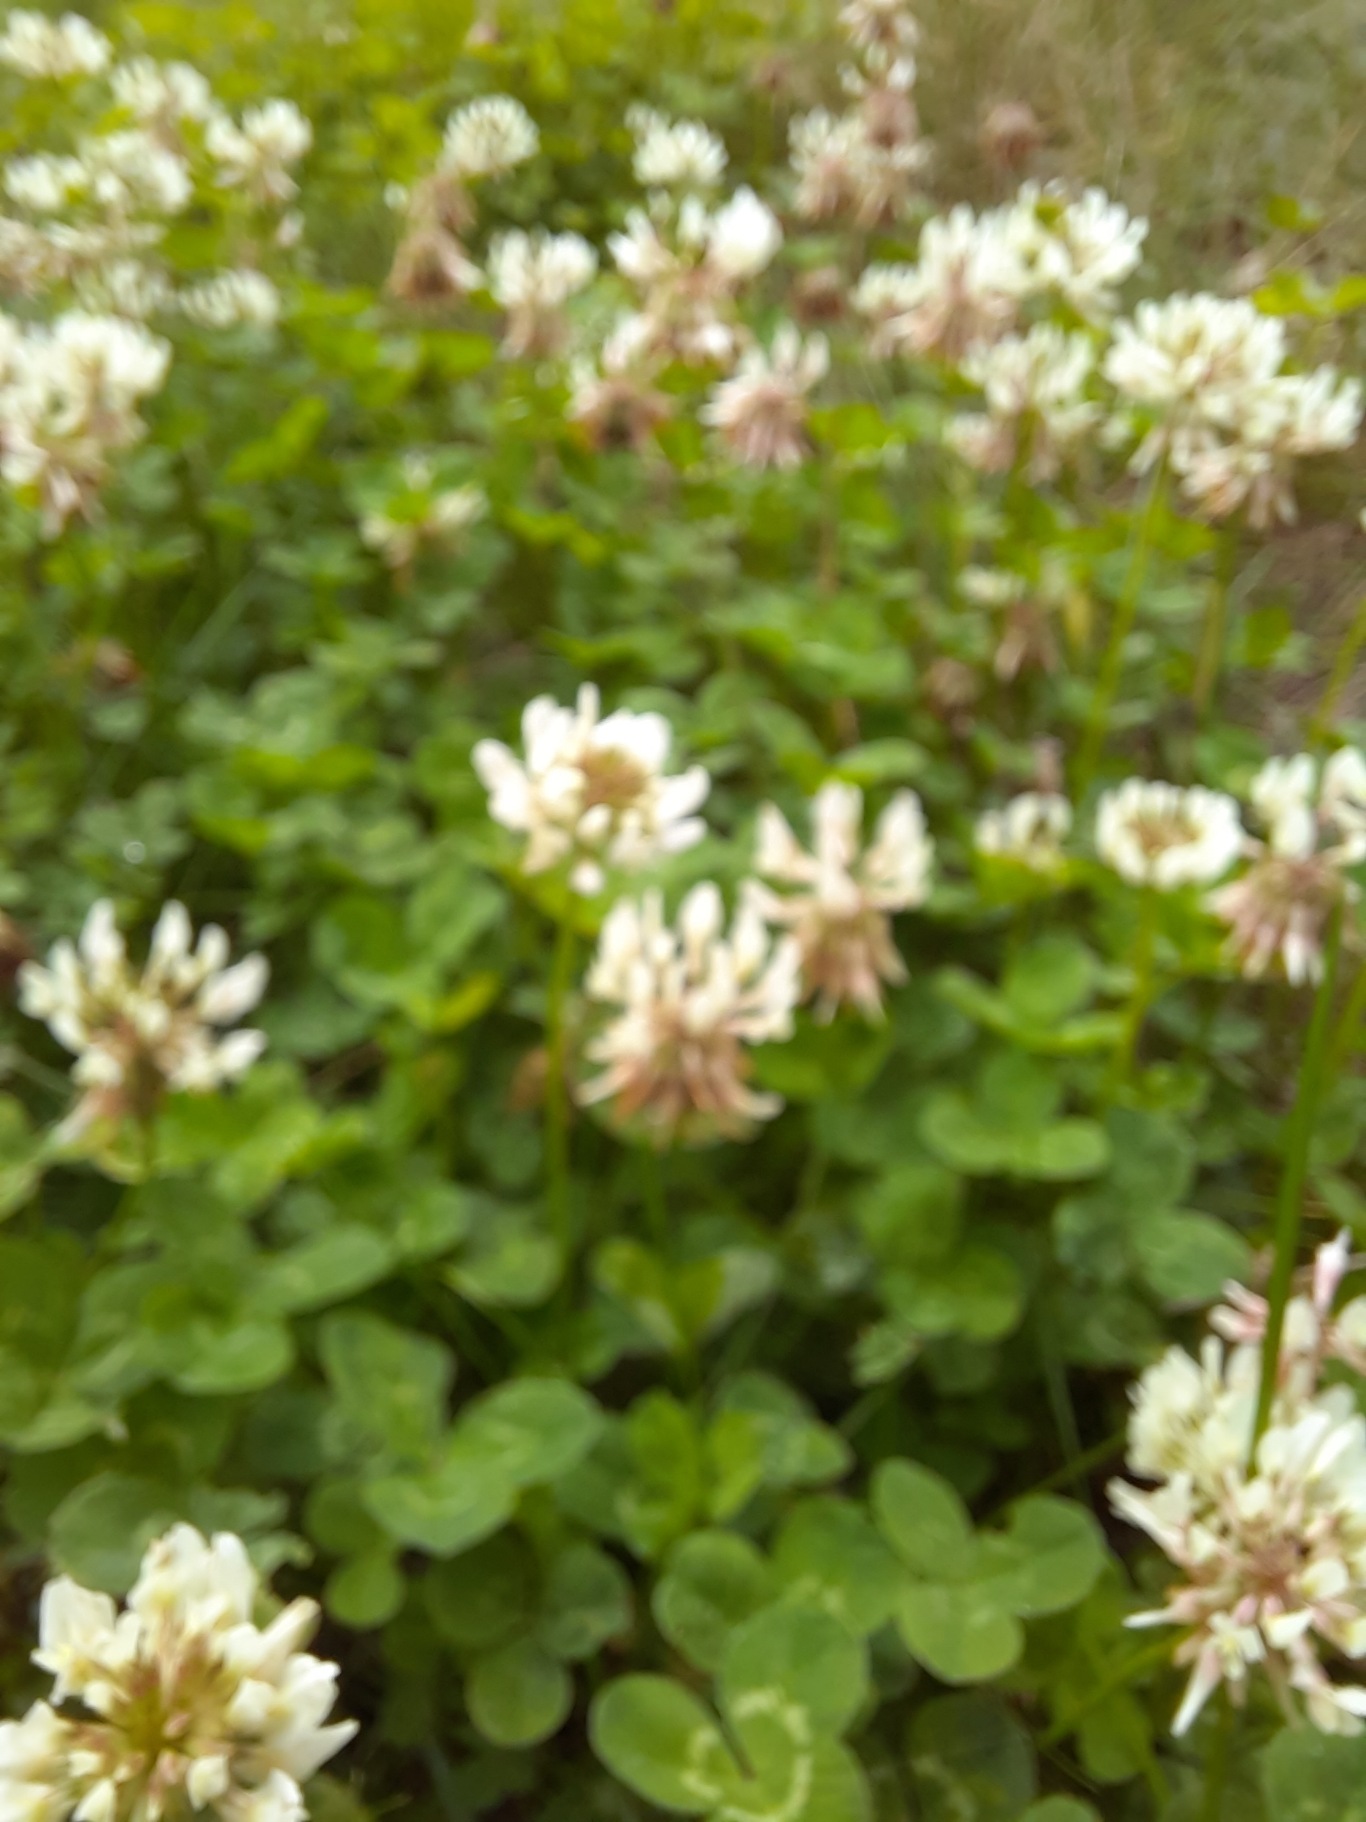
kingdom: Plantae
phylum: Tracheophyta
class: Magnoliopsida
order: Fabales
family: Fabaceae
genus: Trifolium
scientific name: Trifolium repens
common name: Hvid-kløver
